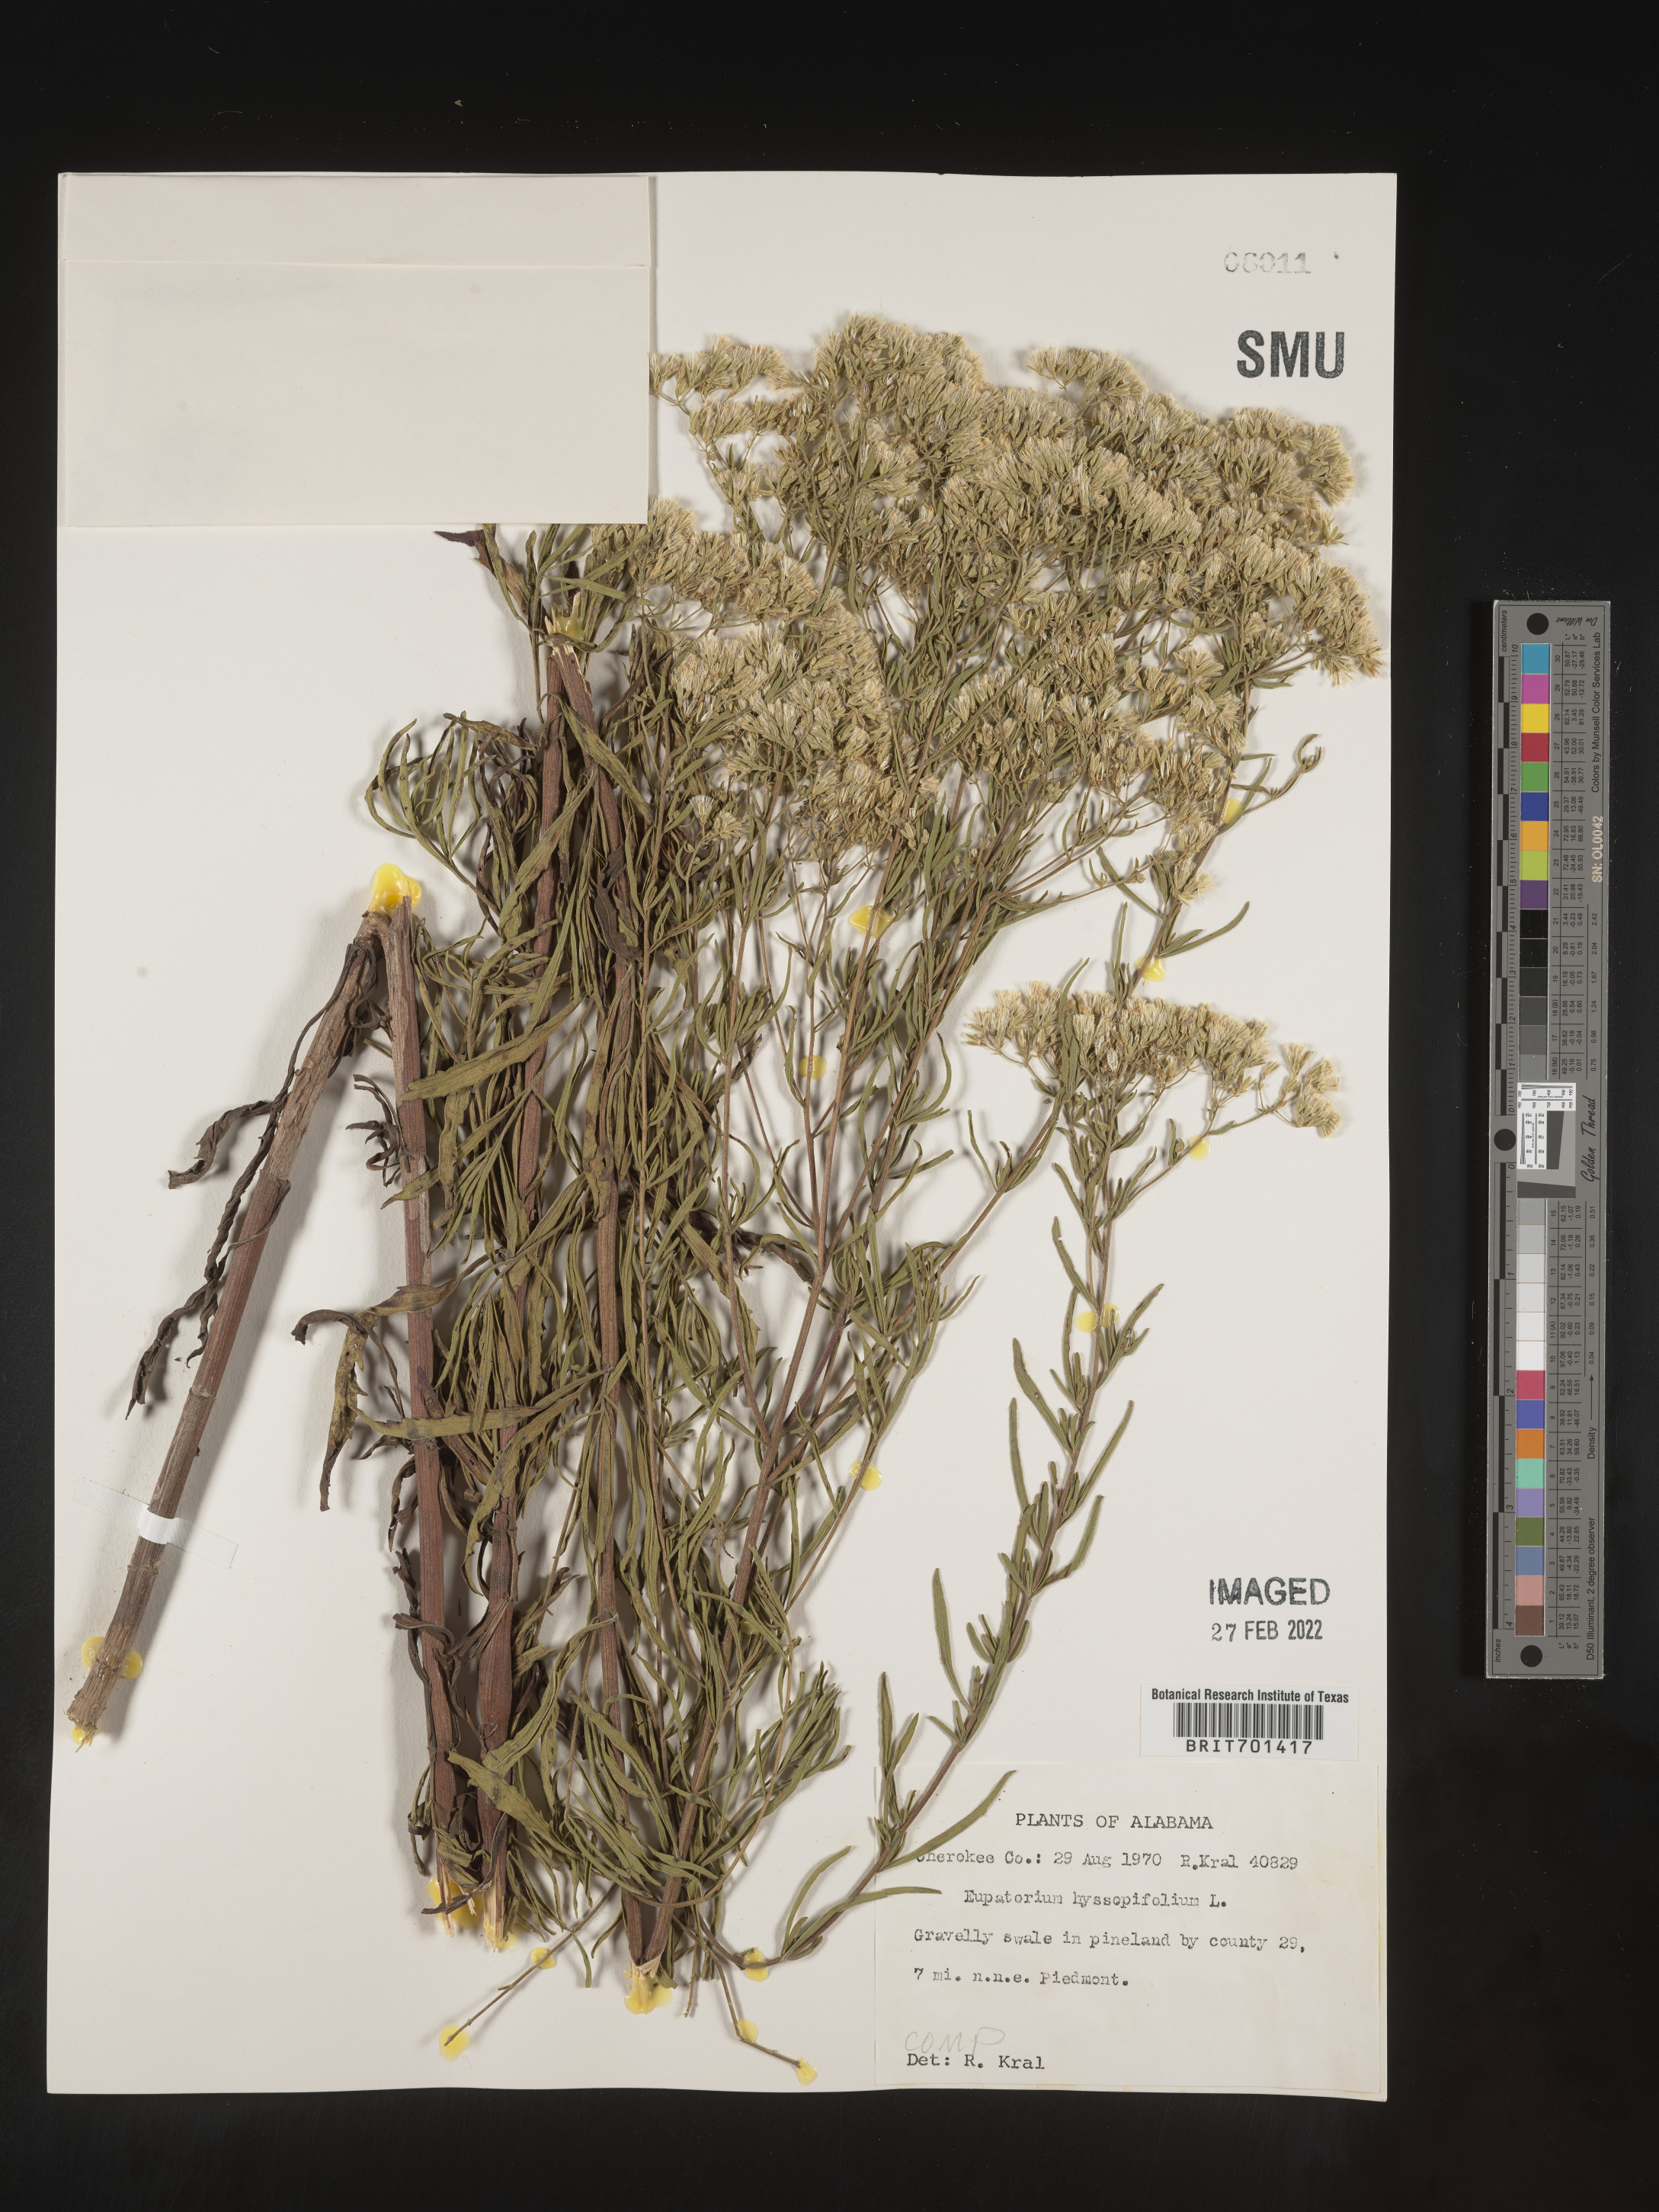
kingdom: Plantae
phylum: Tracheophyta
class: Magnoliopsida
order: Asterales
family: Asteraceae
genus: Eupatorium
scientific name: Eupatorium hyssopifolium
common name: Hyssop-leaf thoroughwort
